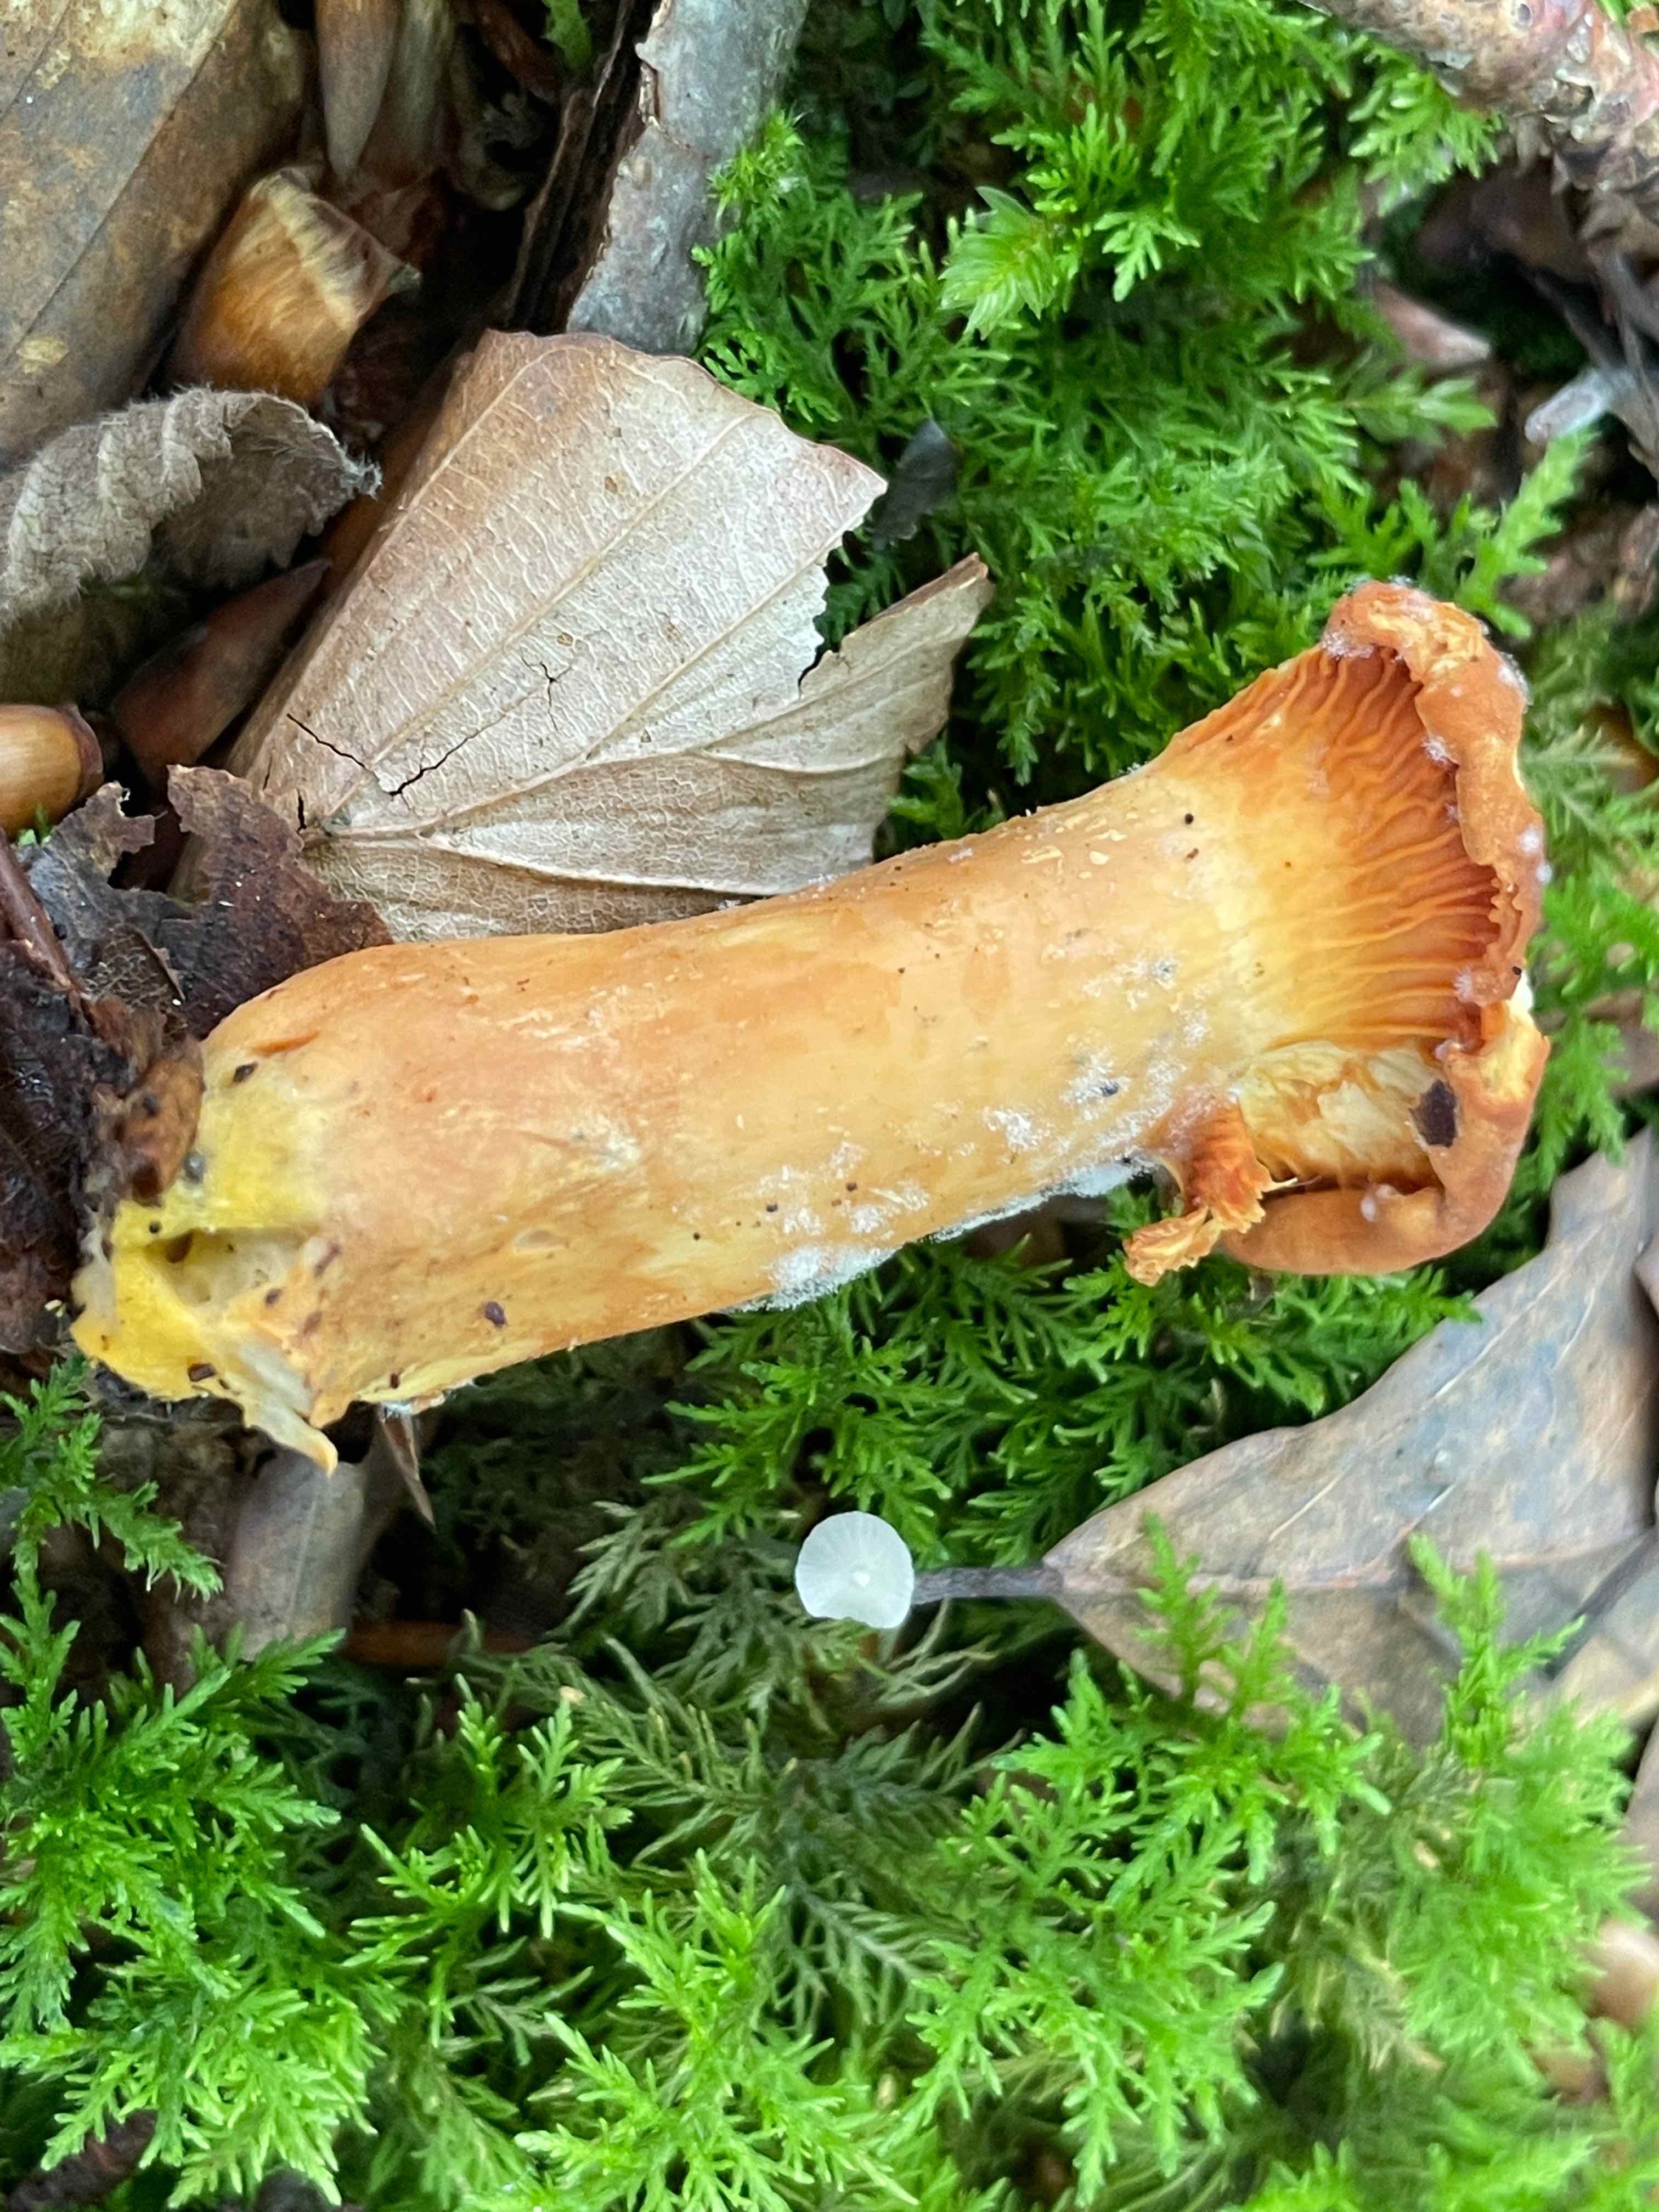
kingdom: Fungi
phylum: Basidiomycota
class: Agaricomycetes
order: Cantharellales
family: Hydnaceae
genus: Cantharellus
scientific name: Cantharellus pallens
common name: bleg kantarel
